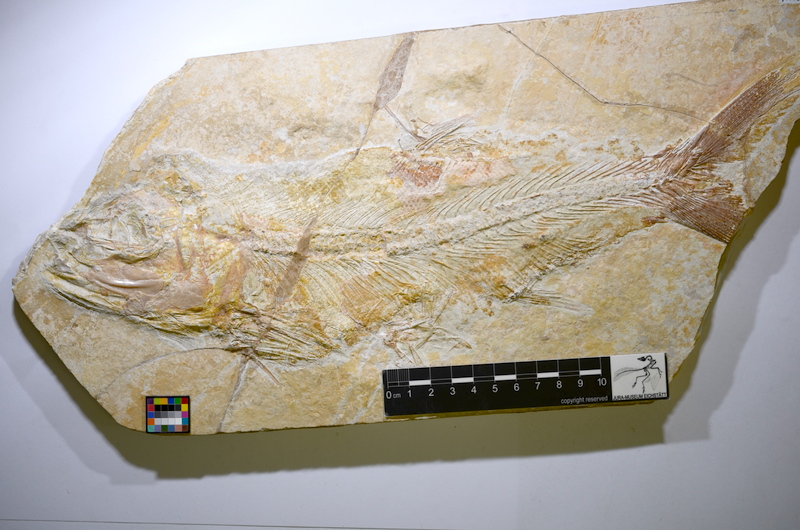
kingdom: Animalia
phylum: Chordata
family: Eurycormidae
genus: Eurycormus
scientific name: Eurycormus speciosus
